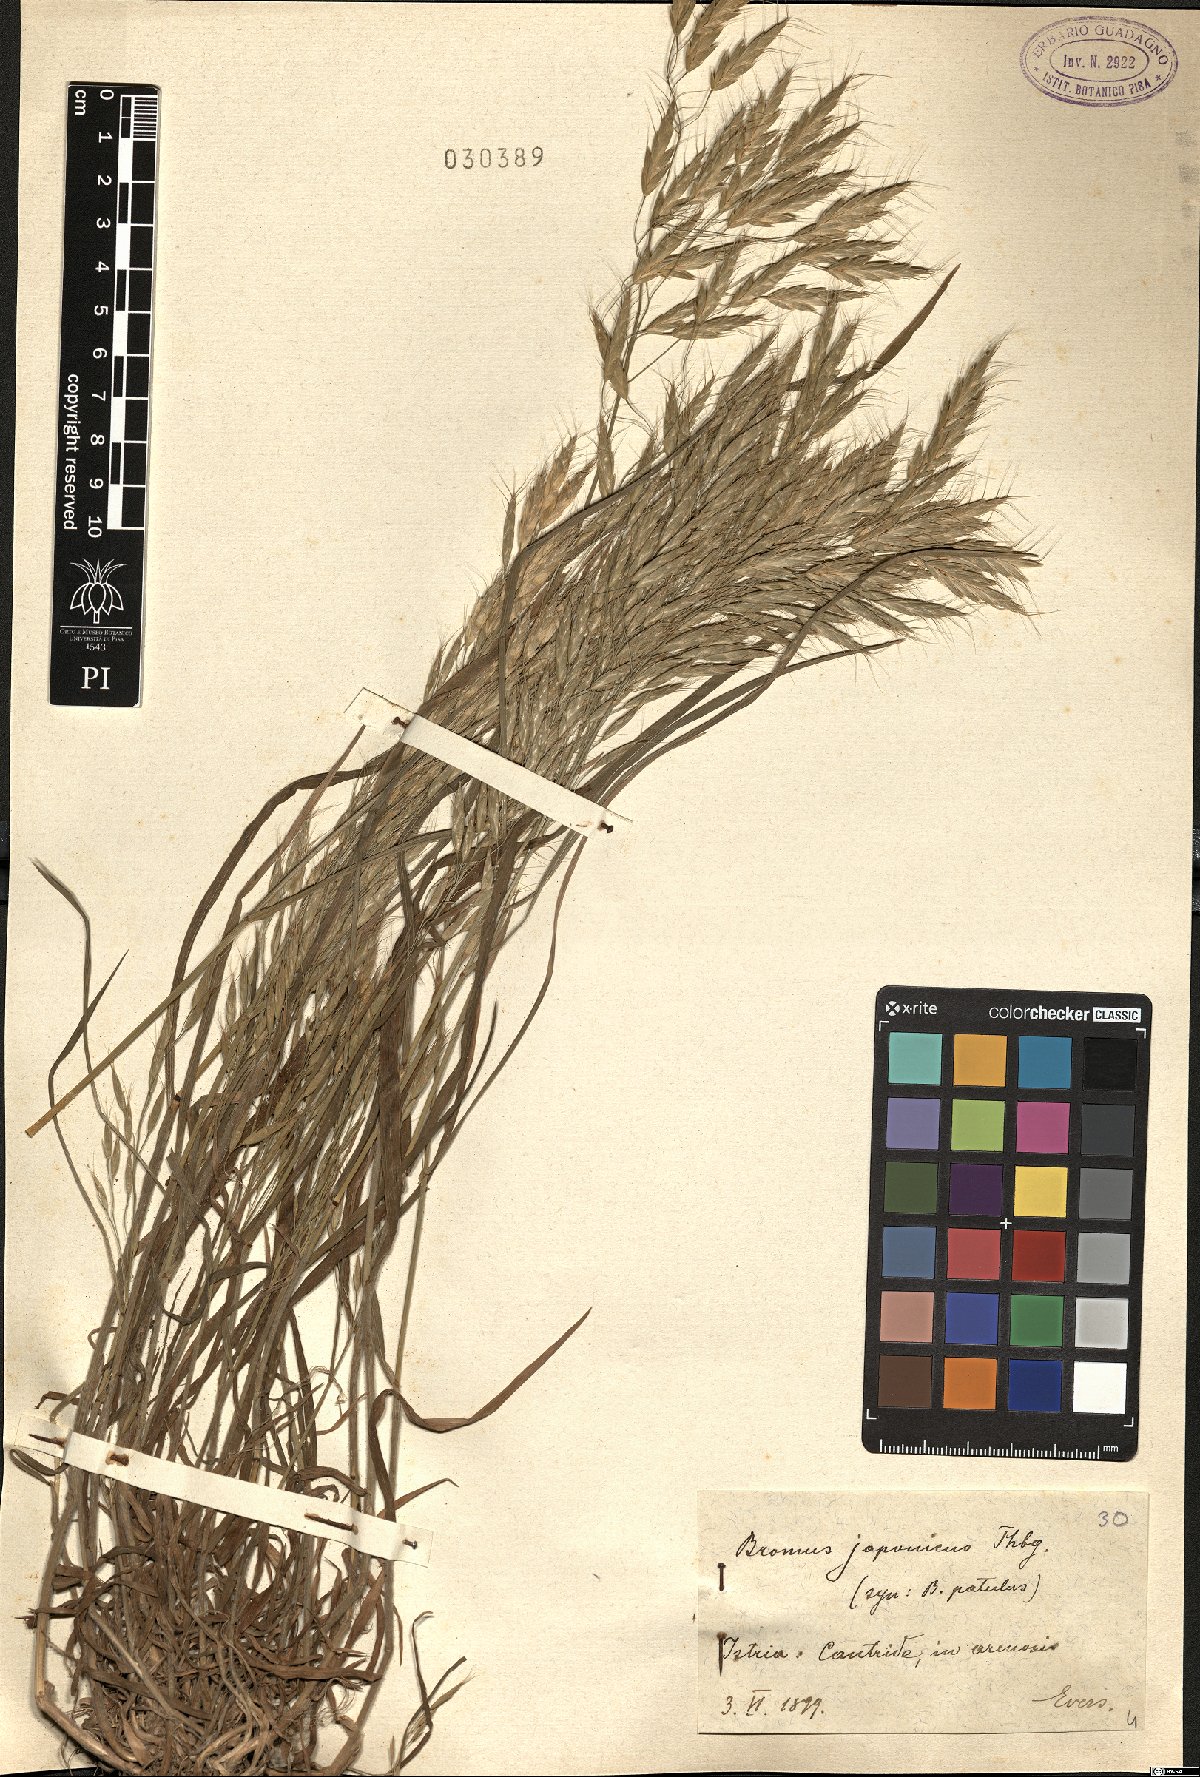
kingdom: Plantae
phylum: Tracheophyta
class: Liliopsida
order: Poales
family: Poaceae
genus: Bromus
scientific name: Bromus japonicus
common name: Japanese brome
